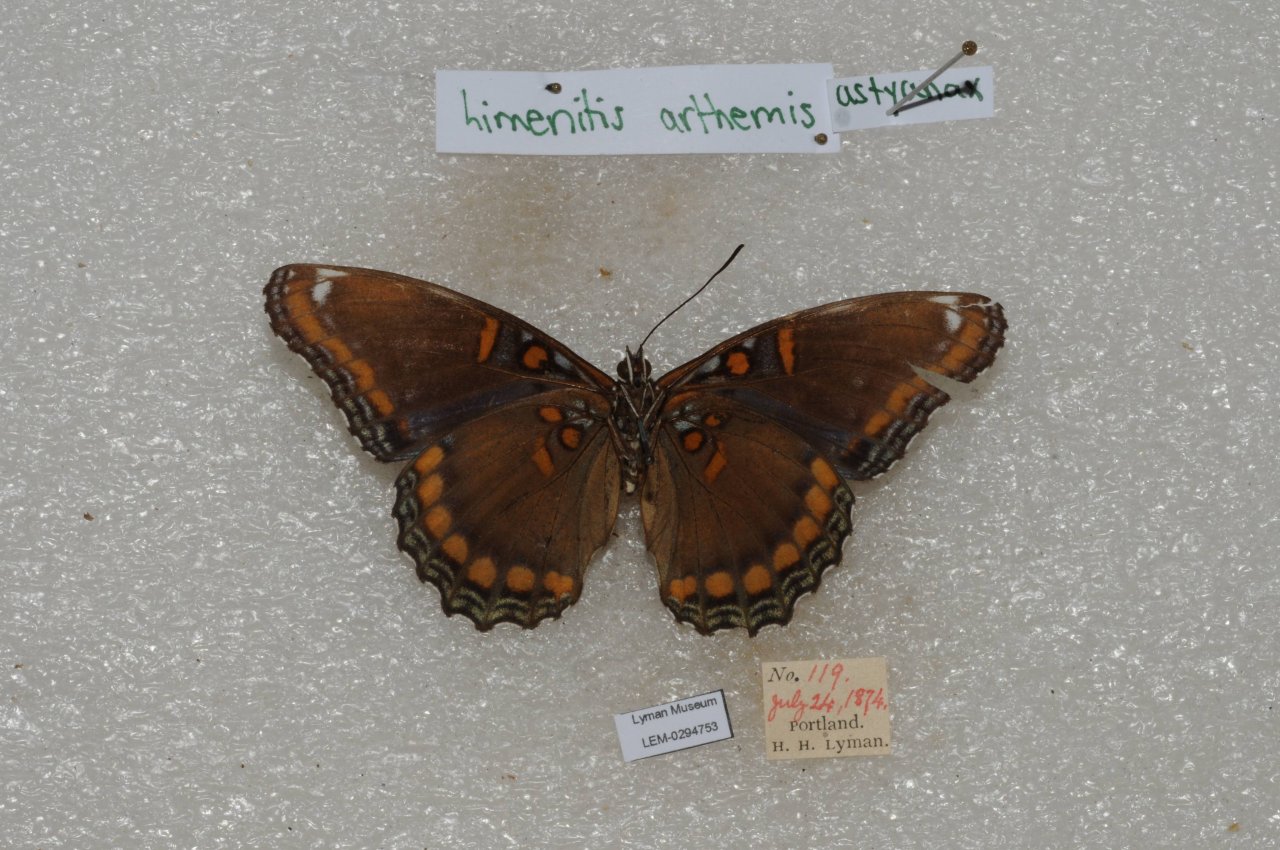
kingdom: Animalia
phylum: Arthropoda
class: Insecta
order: Lepidoptera
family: Nymphalidae
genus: Limenitis
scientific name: Limenitis astyanax
